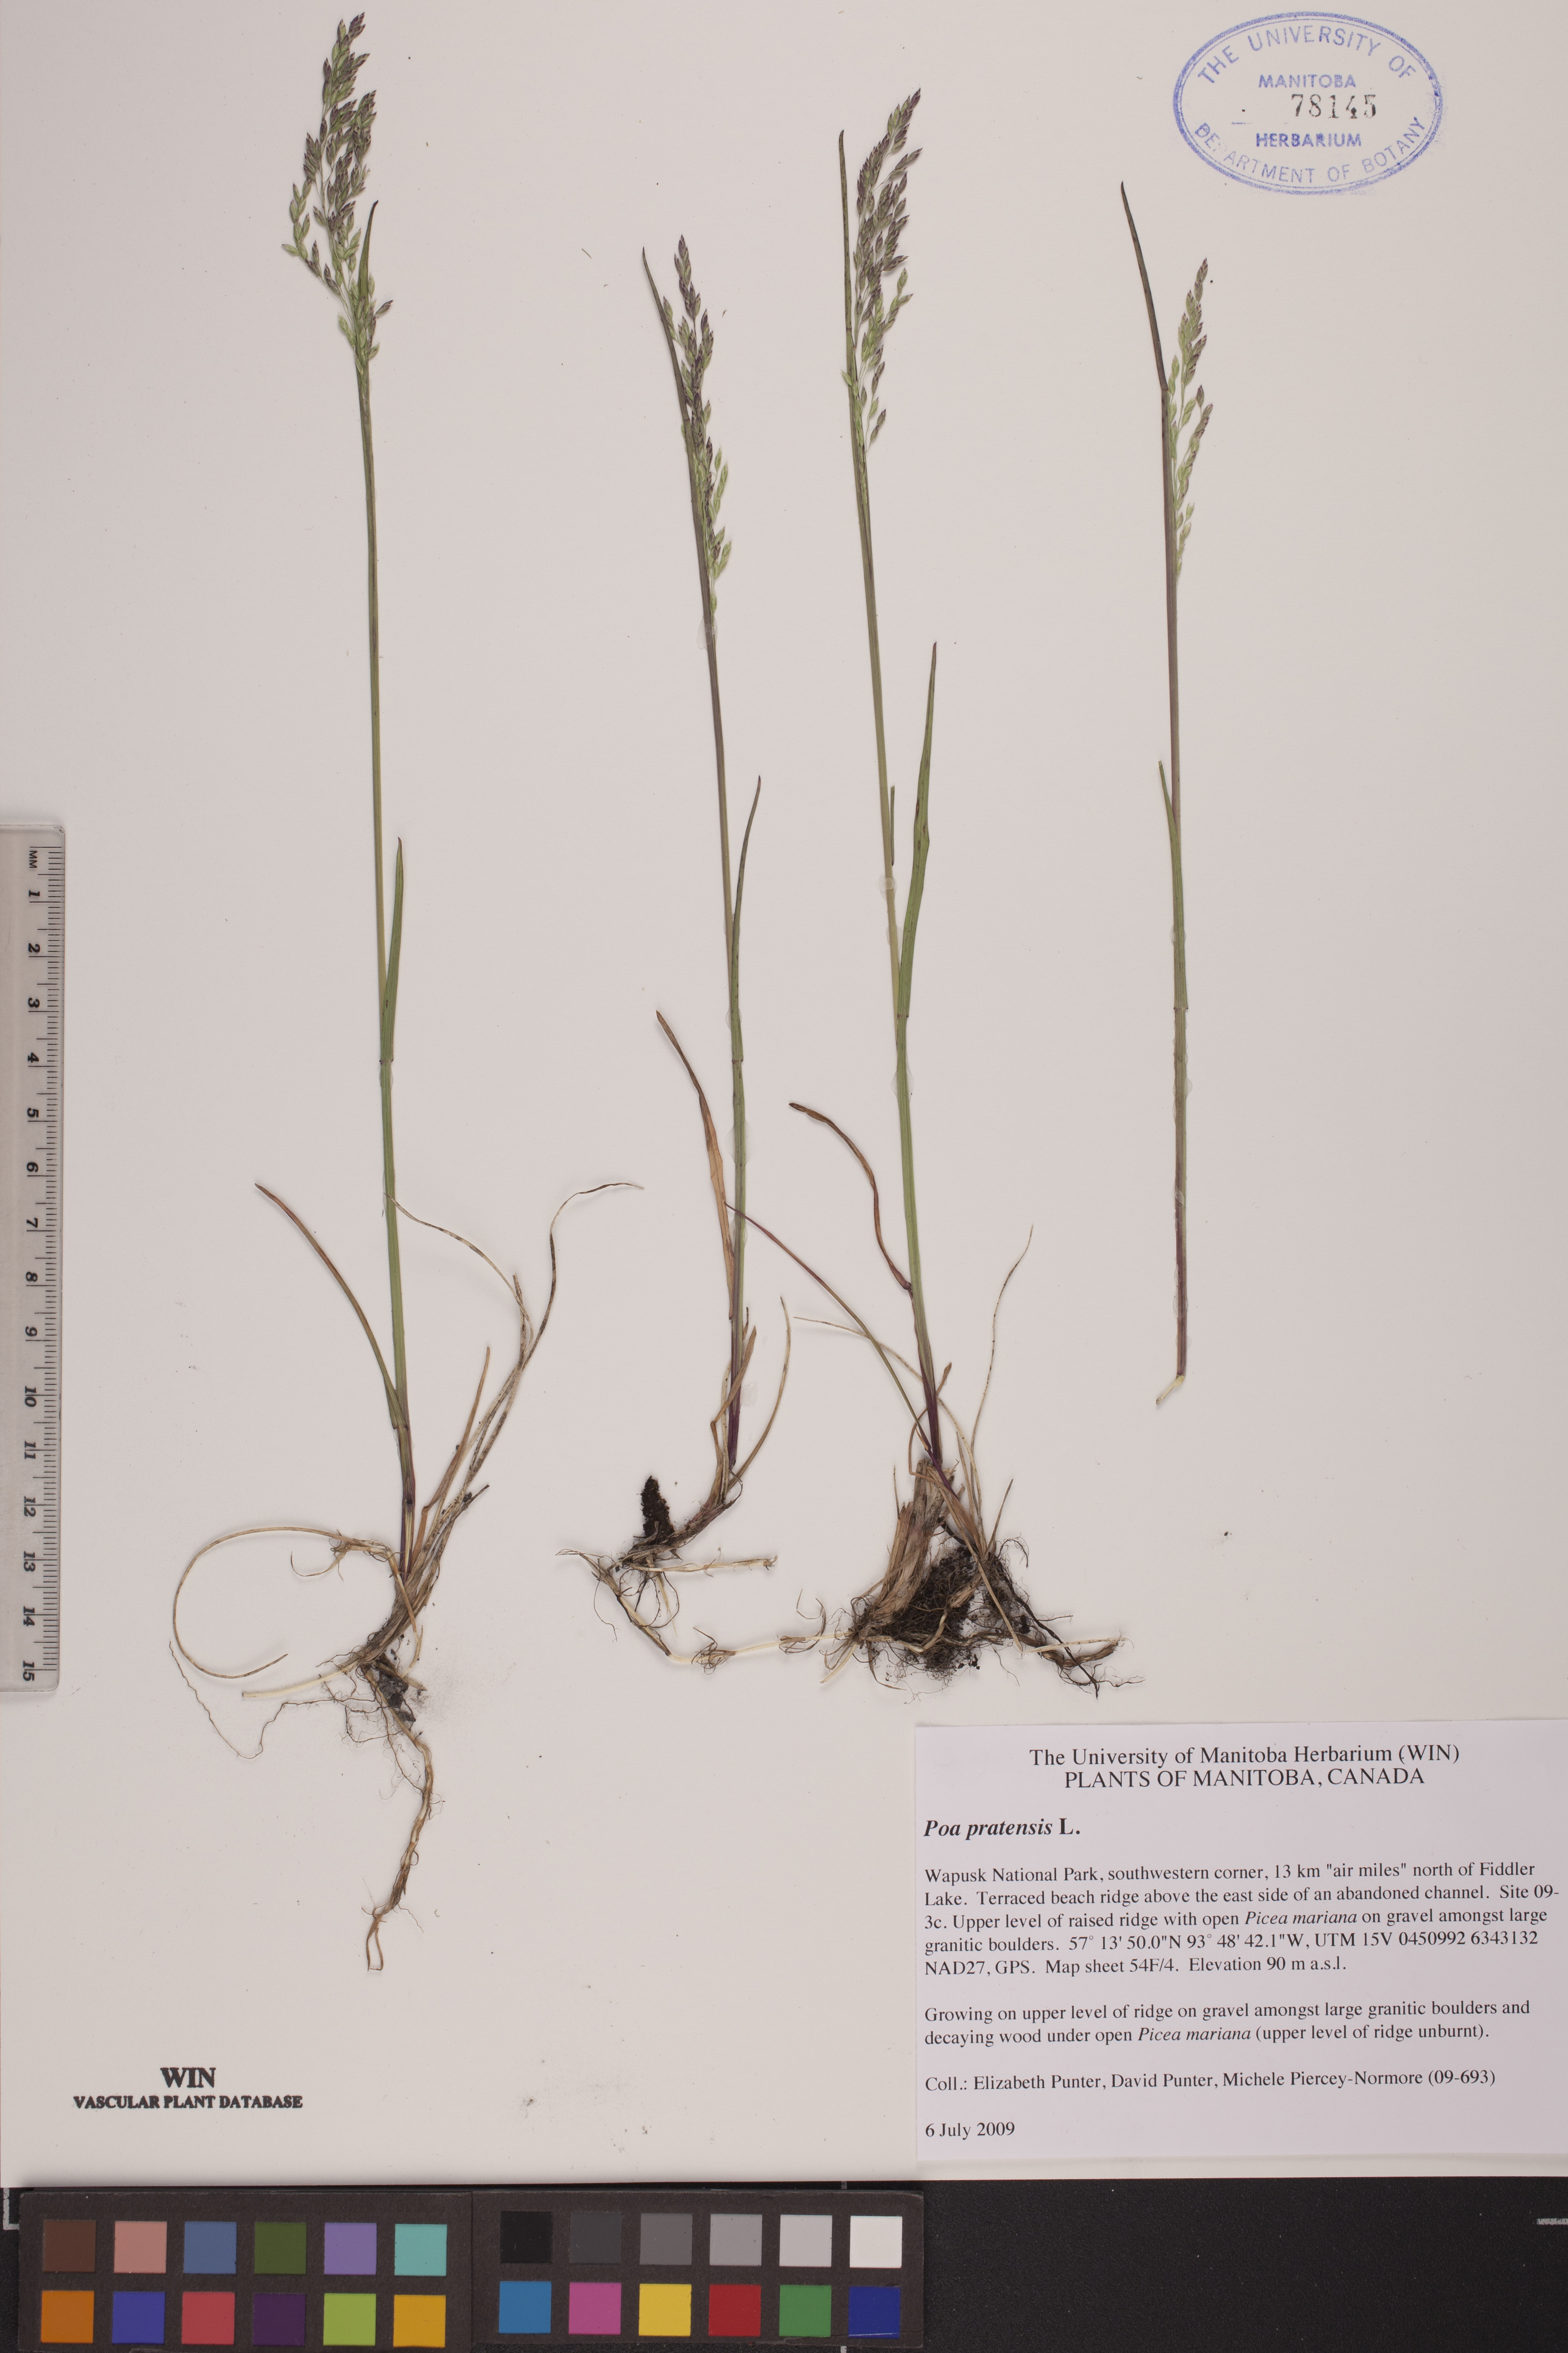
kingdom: Plantae
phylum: Tracheophyta
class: Liliopsida
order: Poales
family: Poaceae
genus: Poa
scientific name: Poa pratensis
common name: Kentucky bluegrass
